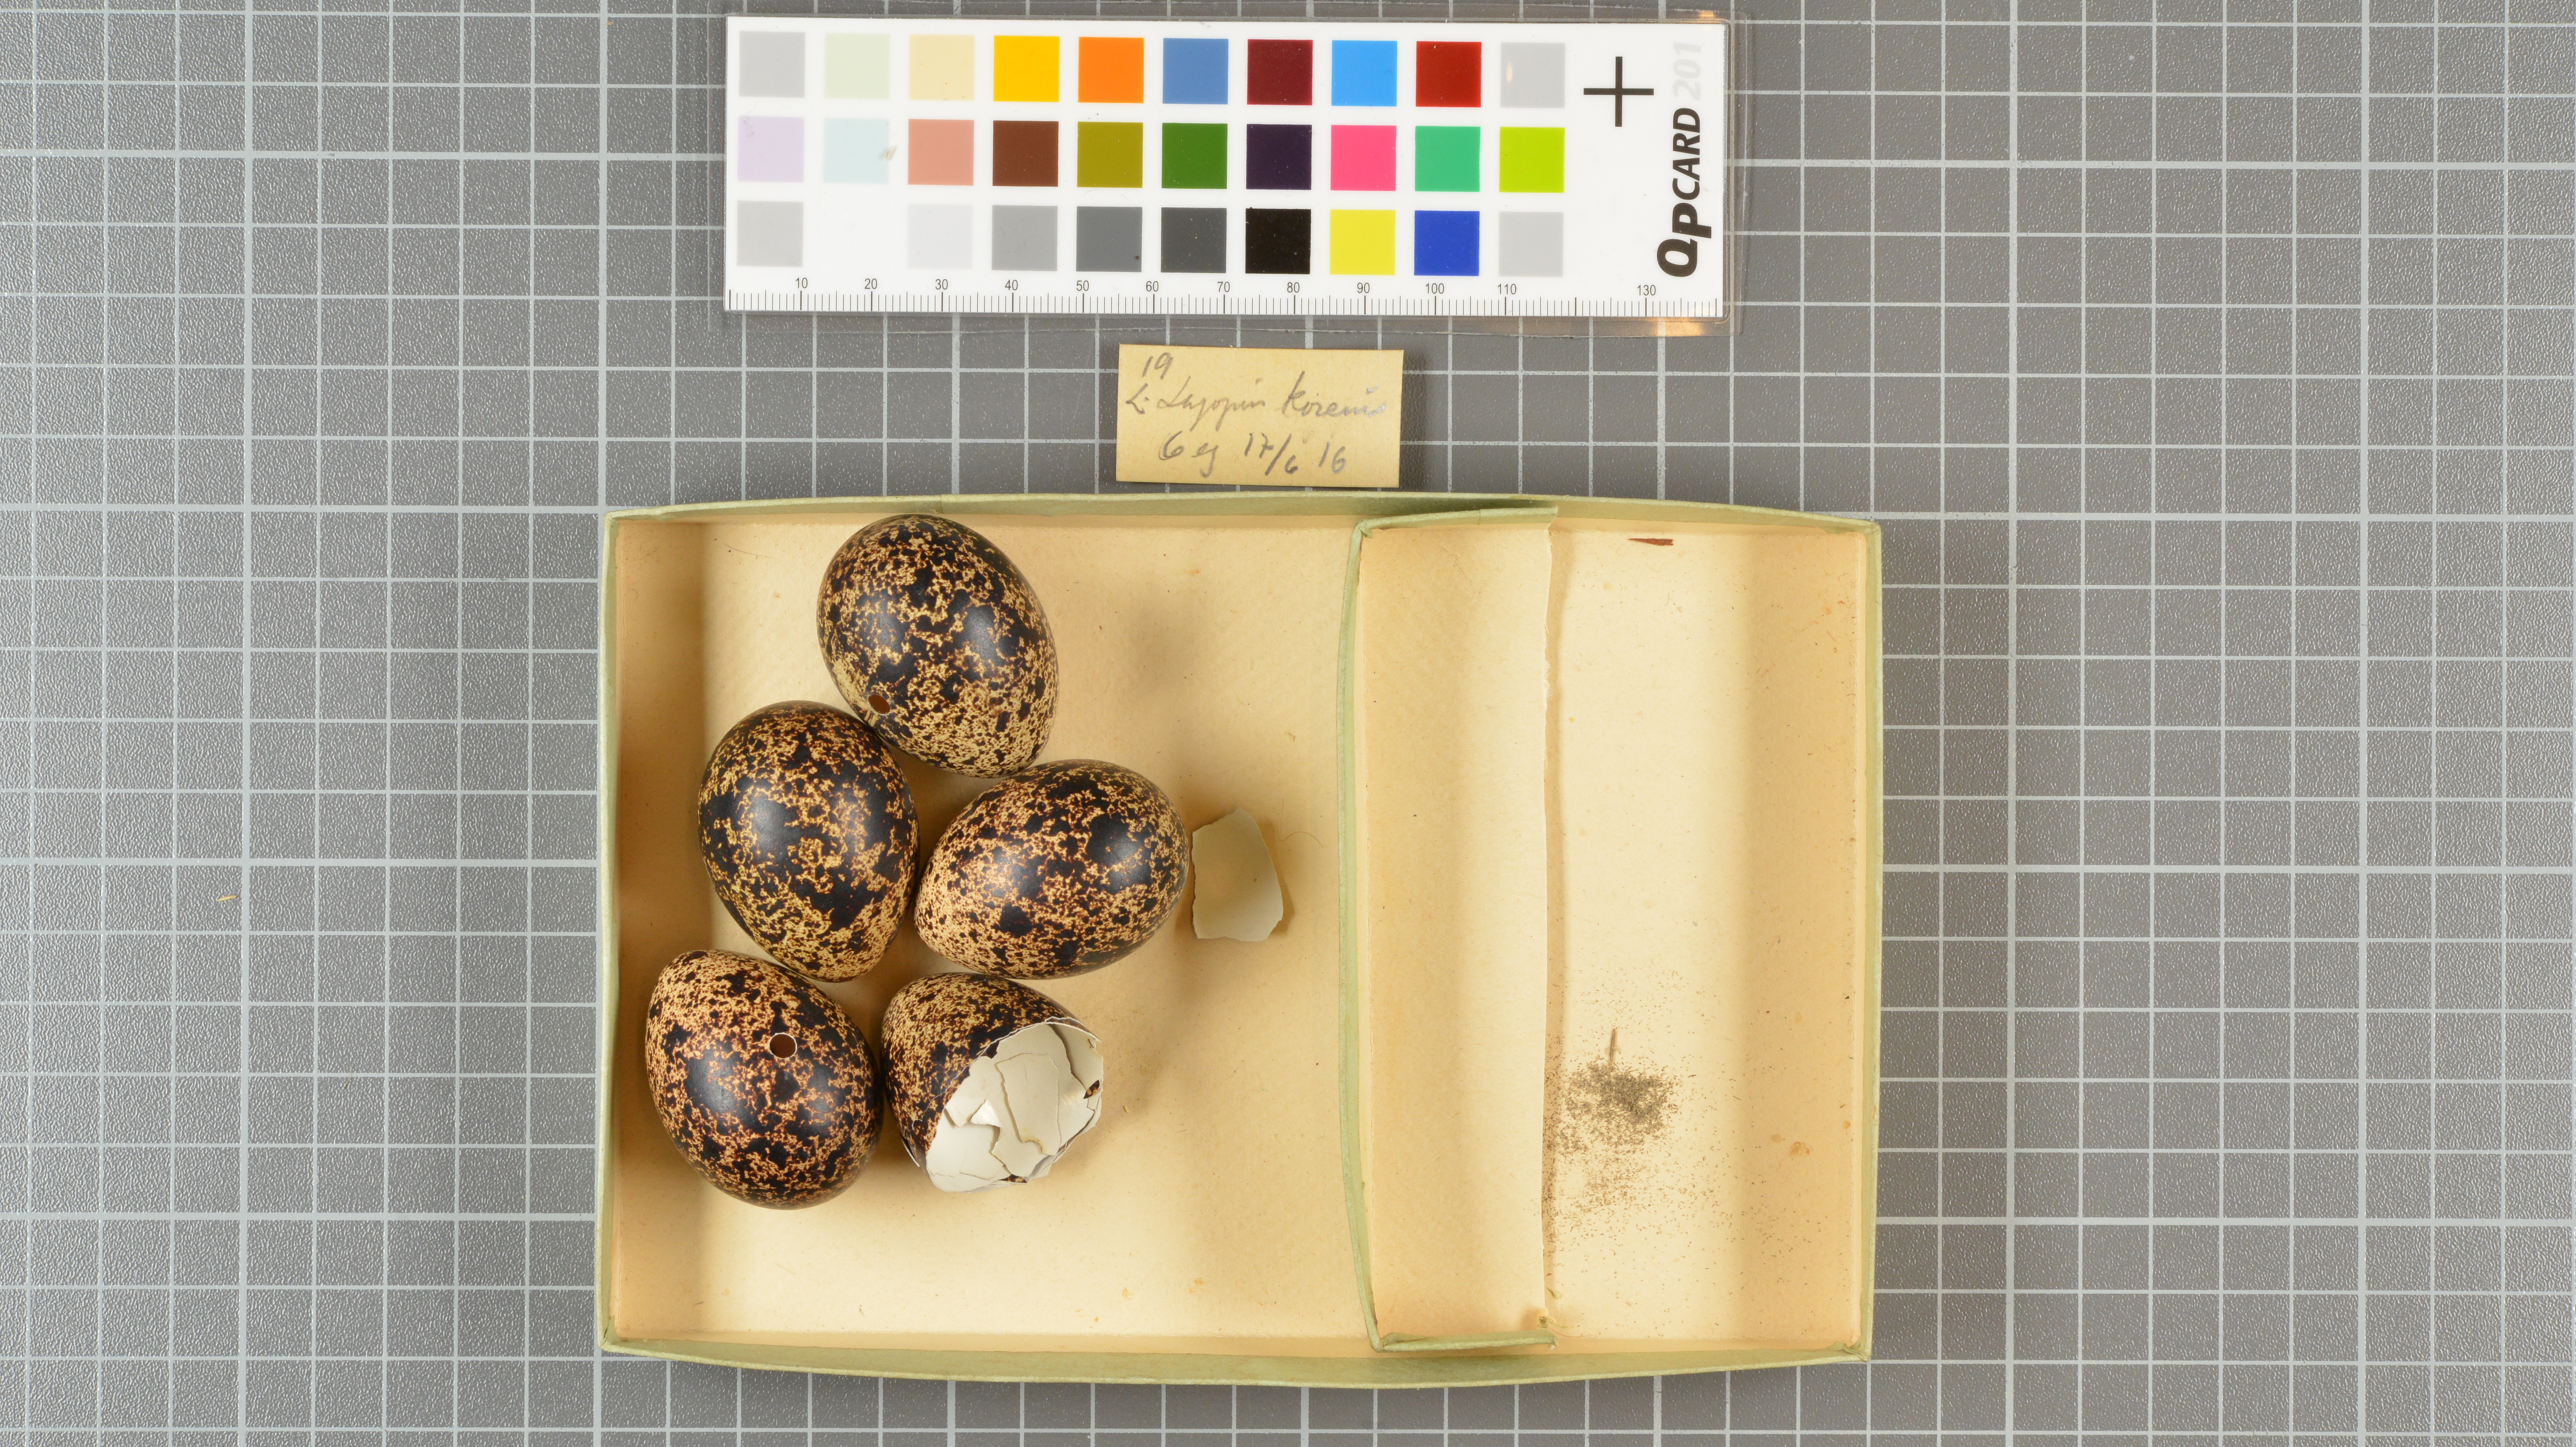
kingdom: Animalia
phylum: Chordata
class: Aves
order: Galliformes
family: Phasianidae
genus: Lagopus
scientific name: Lagopus lagopus
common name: Willow ptarmigan
